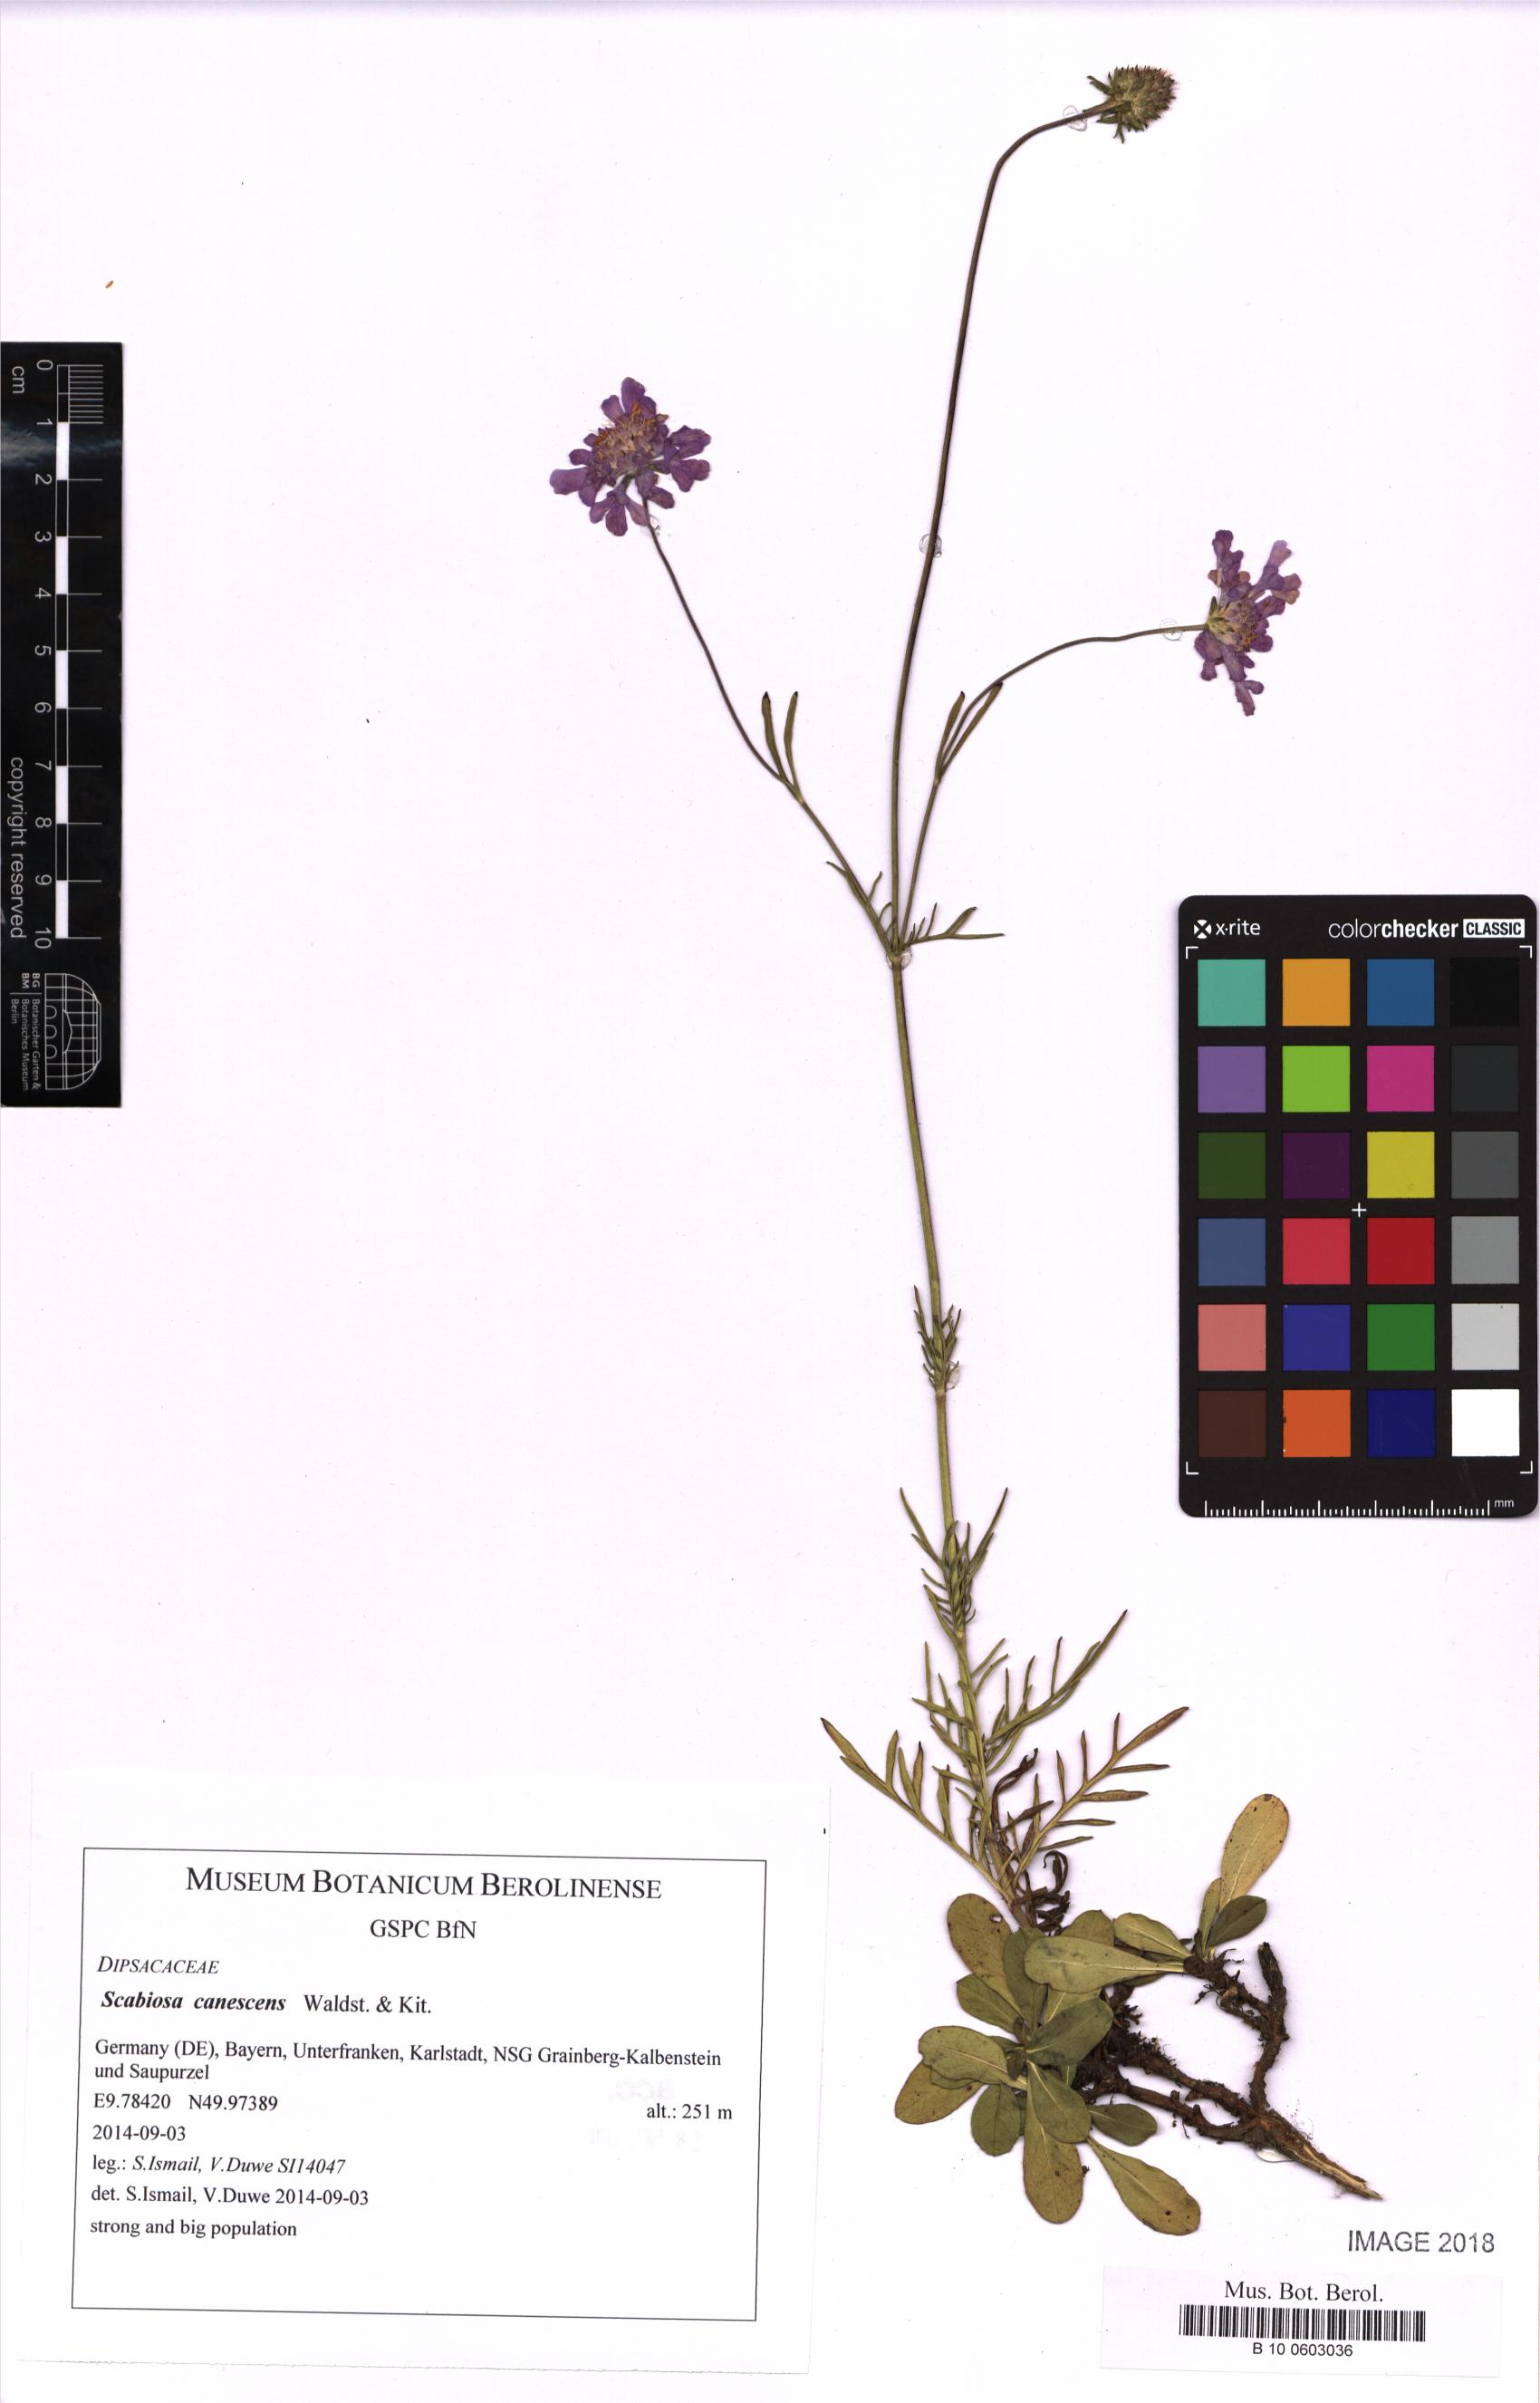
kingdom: Plantae
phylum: Tracheophyta
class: Magnoliopsida
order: Dipsacales
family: Caprifoliaceae
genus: Scabiosa
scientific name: Scabiosa canescens
